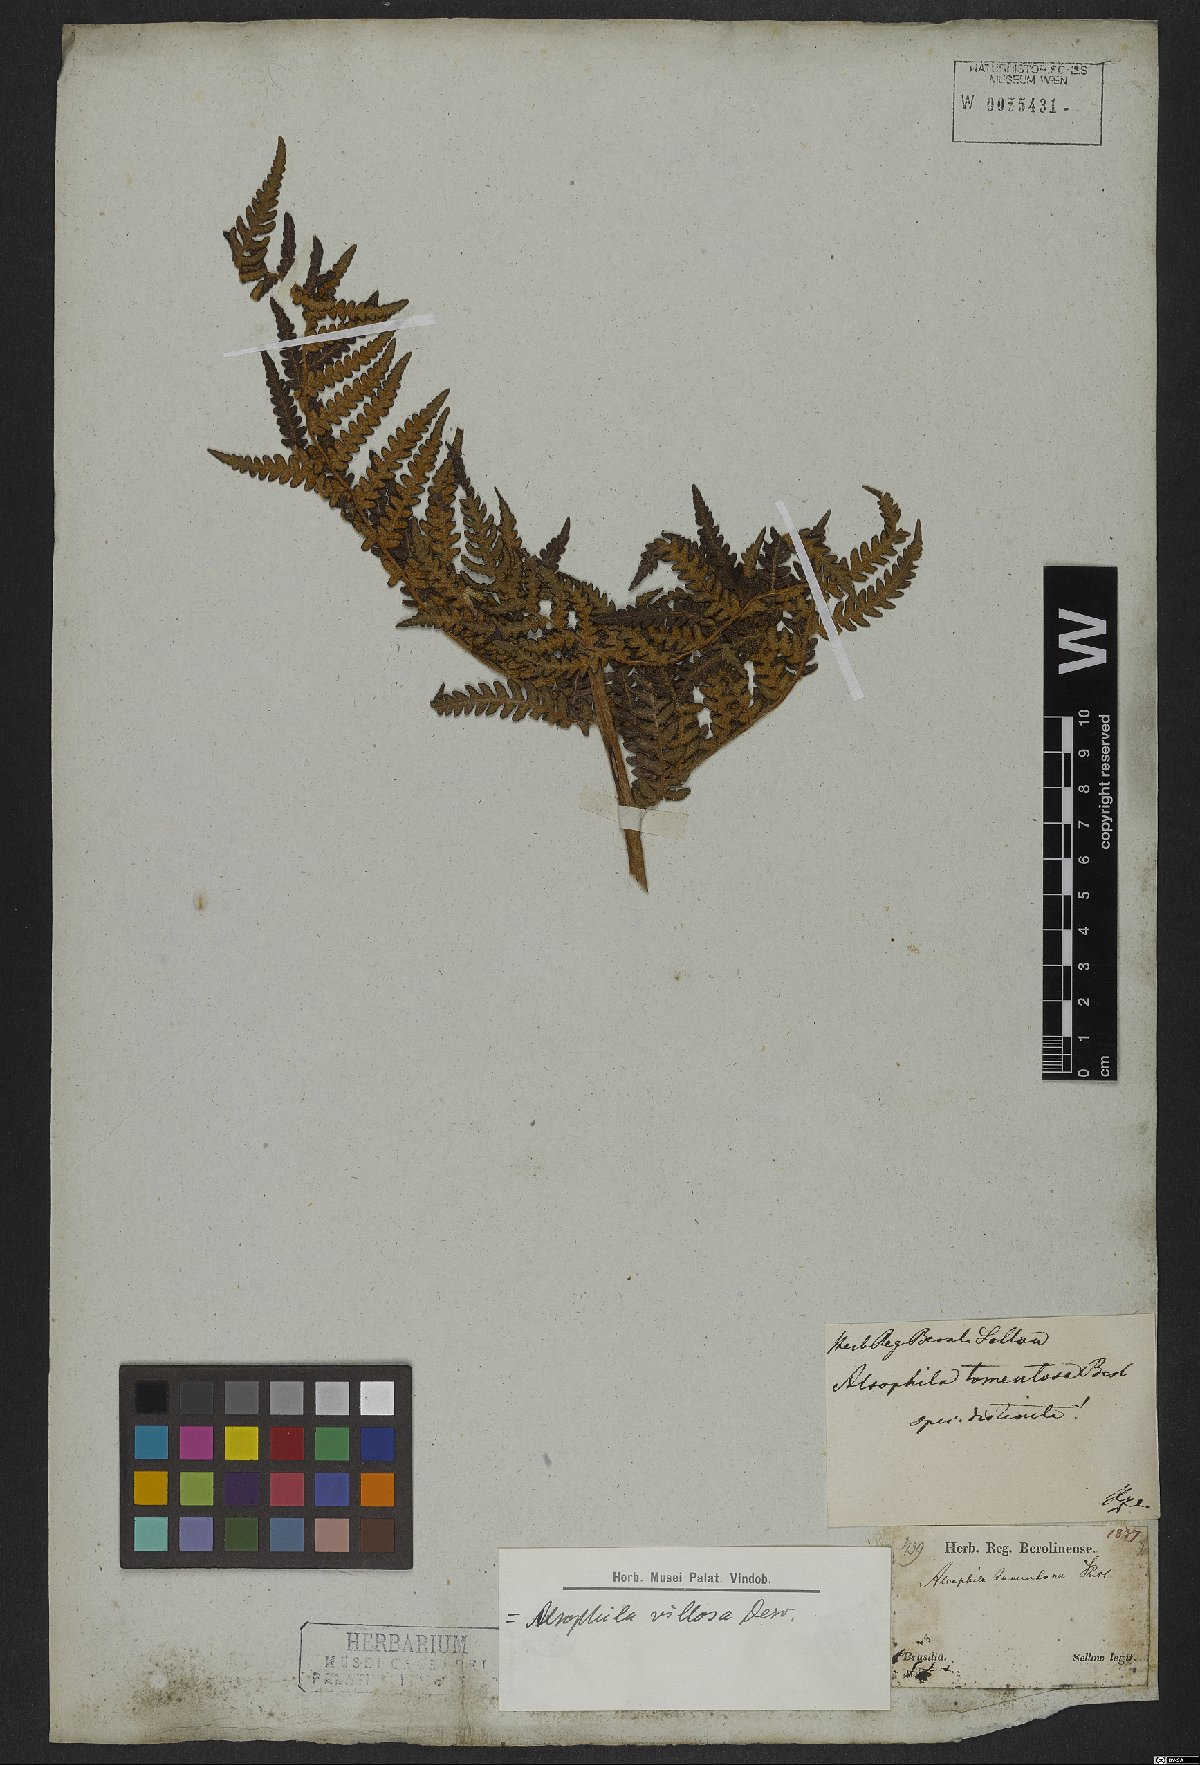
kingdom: Plantae
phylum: Tracheophyta
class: Polypodiopsida
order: Cyatheales
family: Cyatheaceae
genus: Cyathea
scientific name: Cyathea villosa
